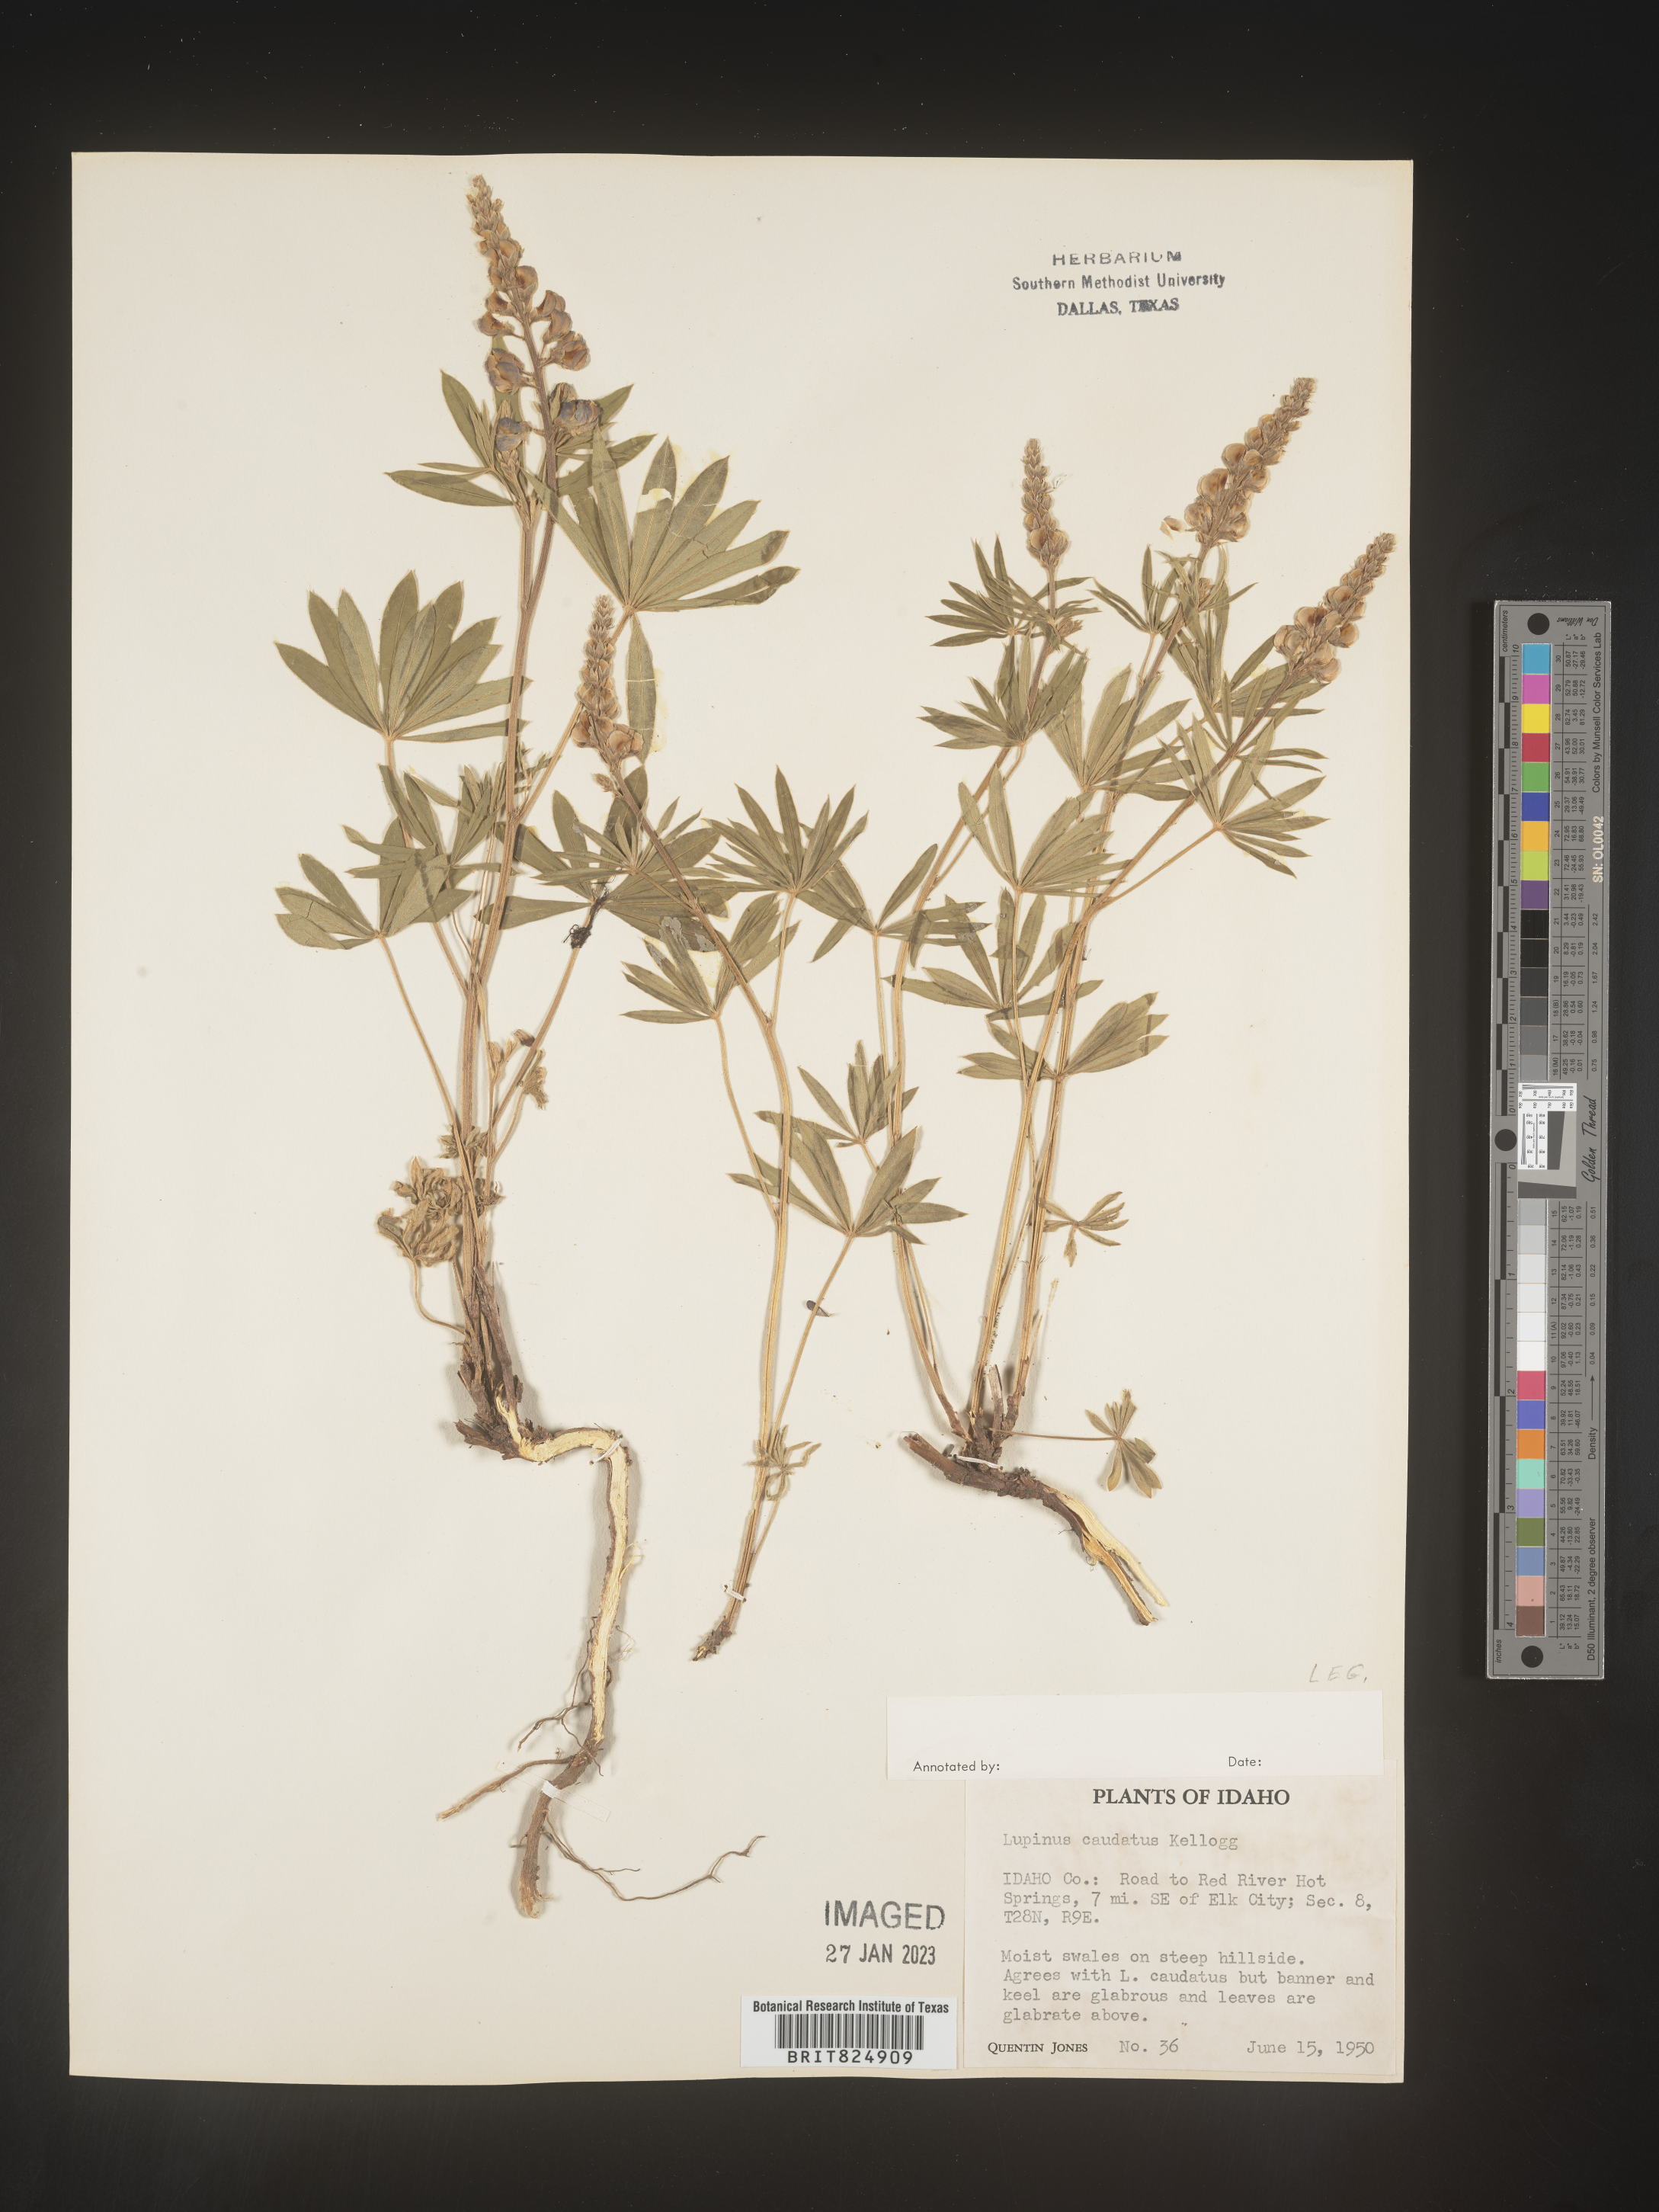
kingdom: Plantae
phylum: Tracheophyta
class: Magnoliopsida
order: Fabales
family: Fabaceae
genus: Lupinus
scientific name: Lupinus caudatus
